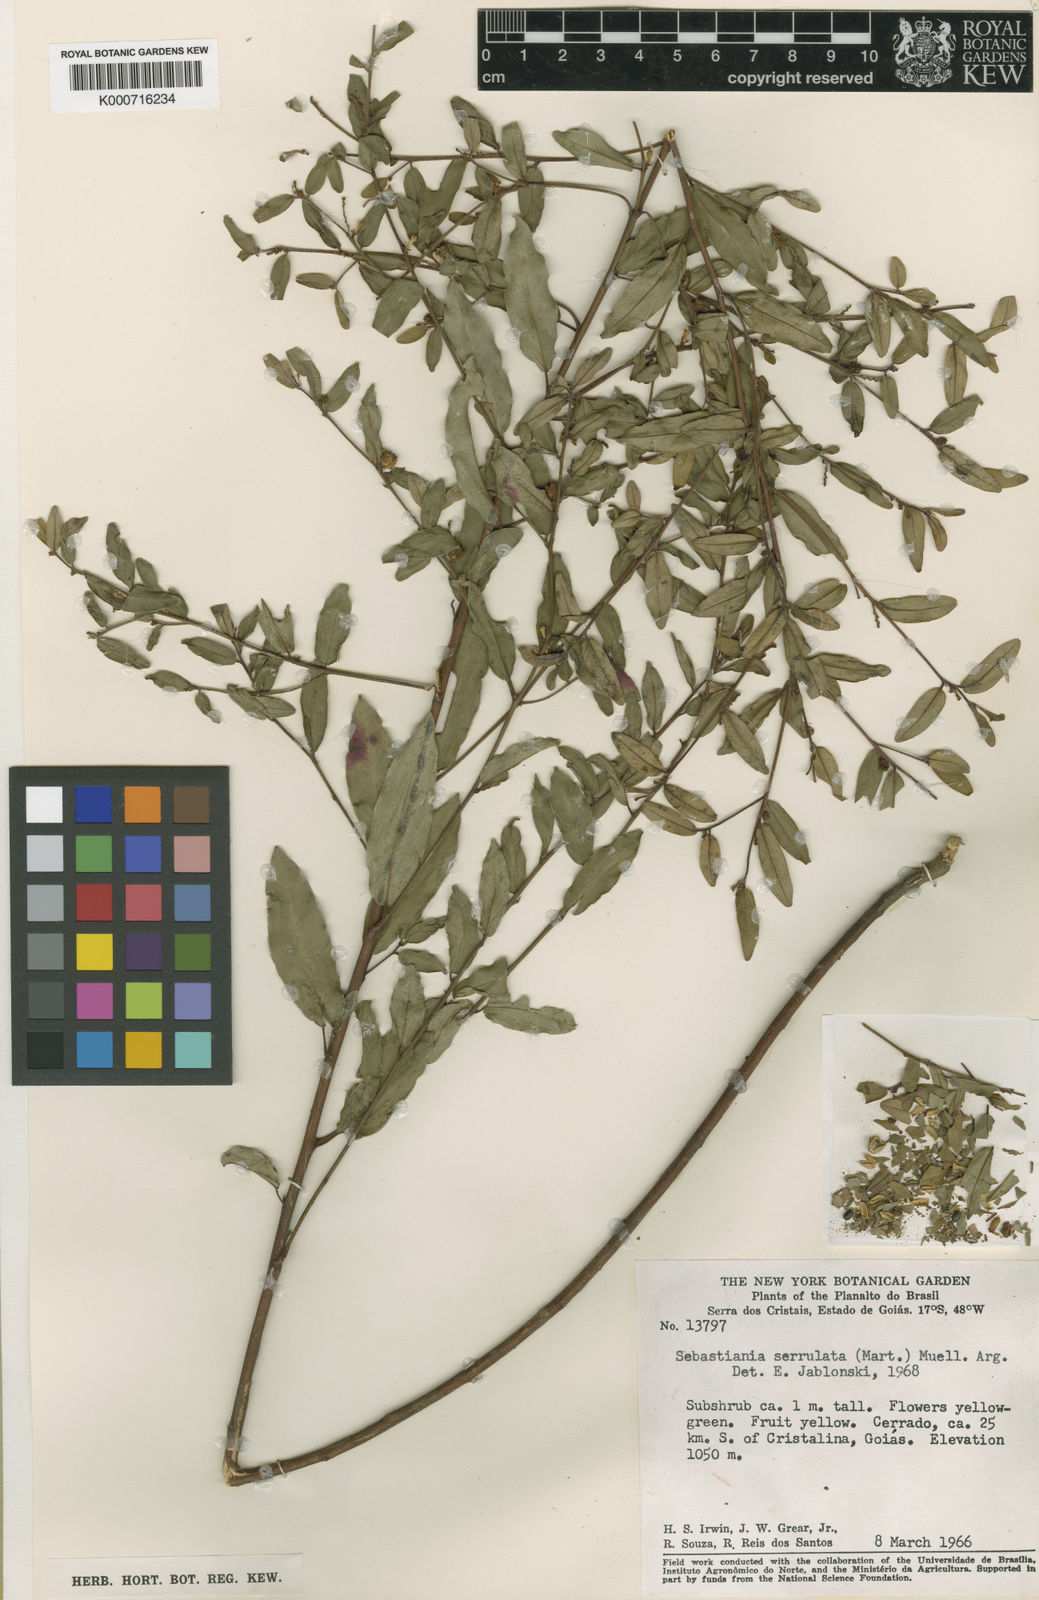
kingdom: Plantae
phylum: Tracheophyta
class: Magnoliopsida
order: Malpighiales
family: Euphorbiaceae
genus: Sebastiania
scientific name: Sebastiania
